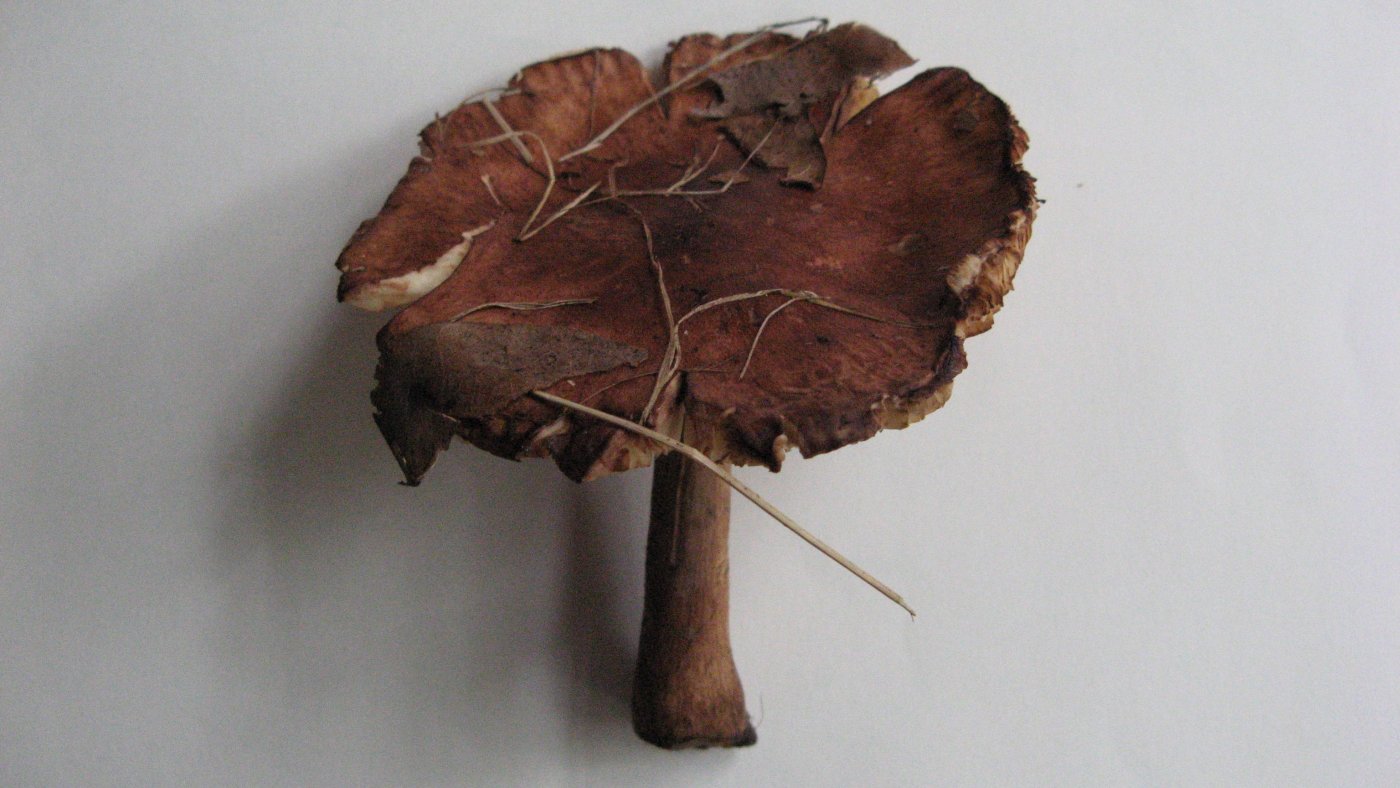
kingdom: Fungi
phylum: Basidiomycota
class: Agaricomycetes
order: Agaricales
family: Tricholomataceae
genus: Tricholoma
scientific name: Tricholoma fulvum
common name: birke-ridderhat
